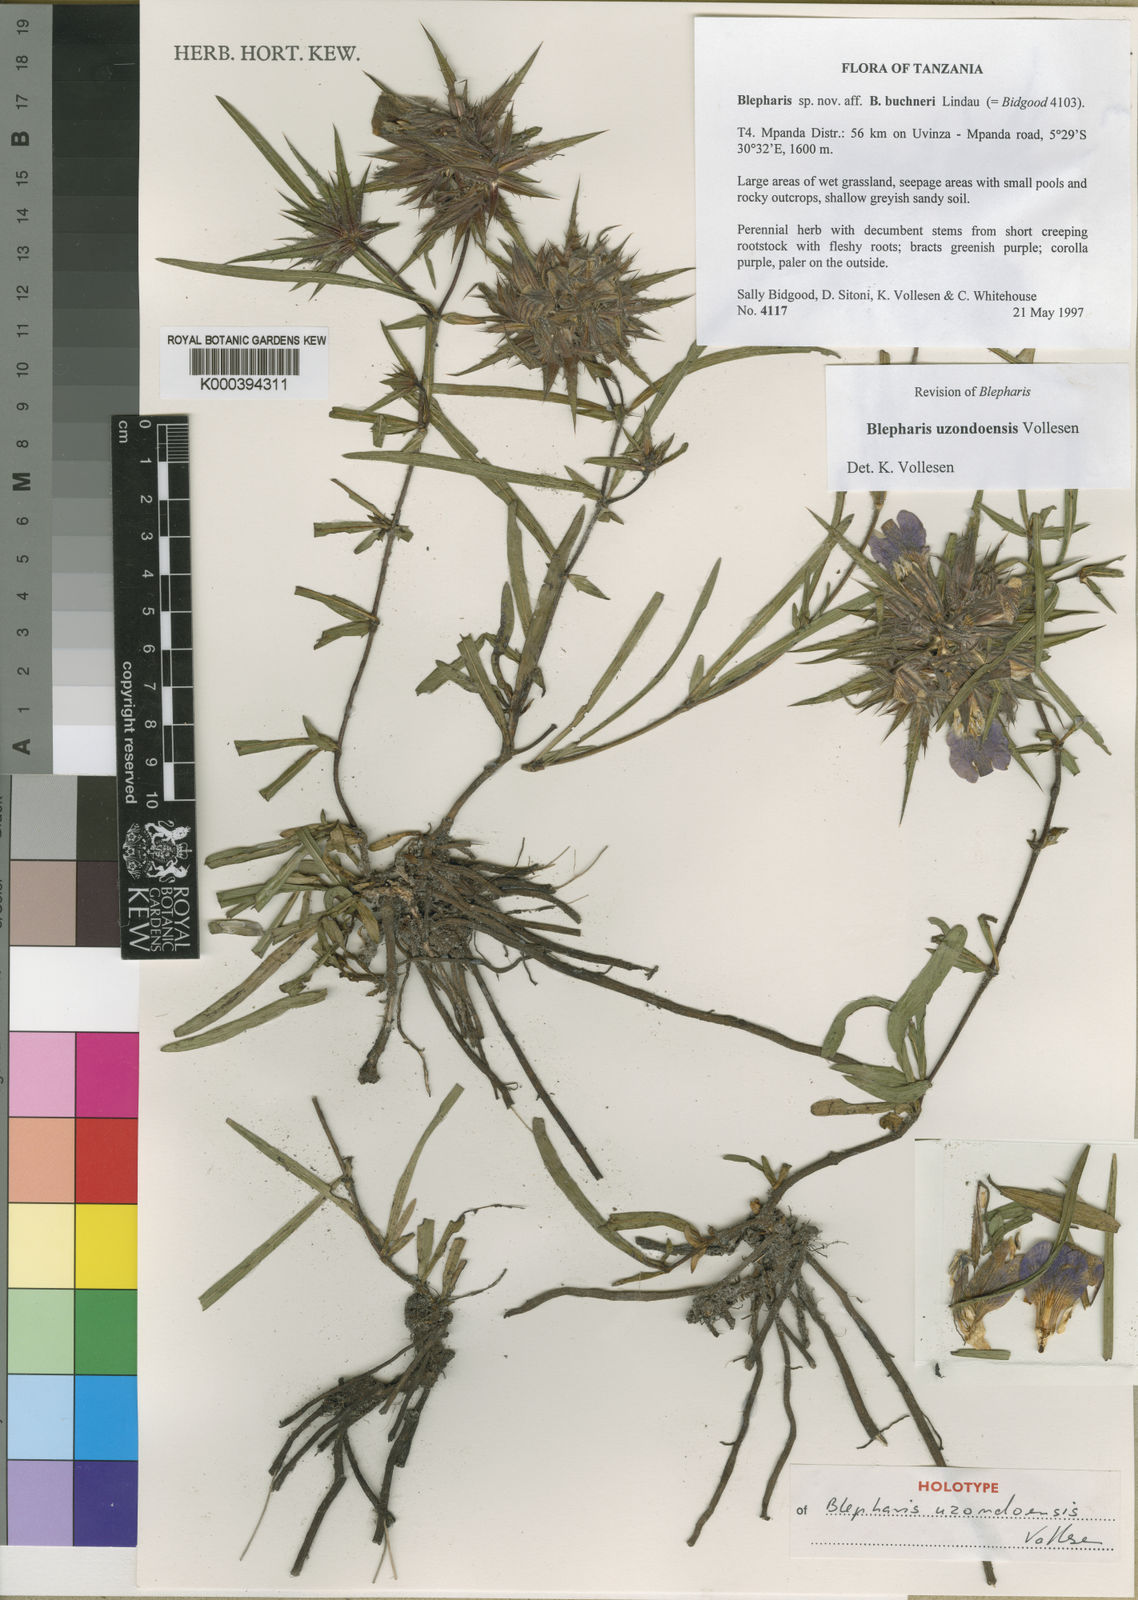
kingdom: Plantae
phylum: Tracheophyta
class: Magnoliopsida
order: Lamiales
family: Acanthaceae
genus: Blepharis
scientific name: Blepharis uzondoensis
